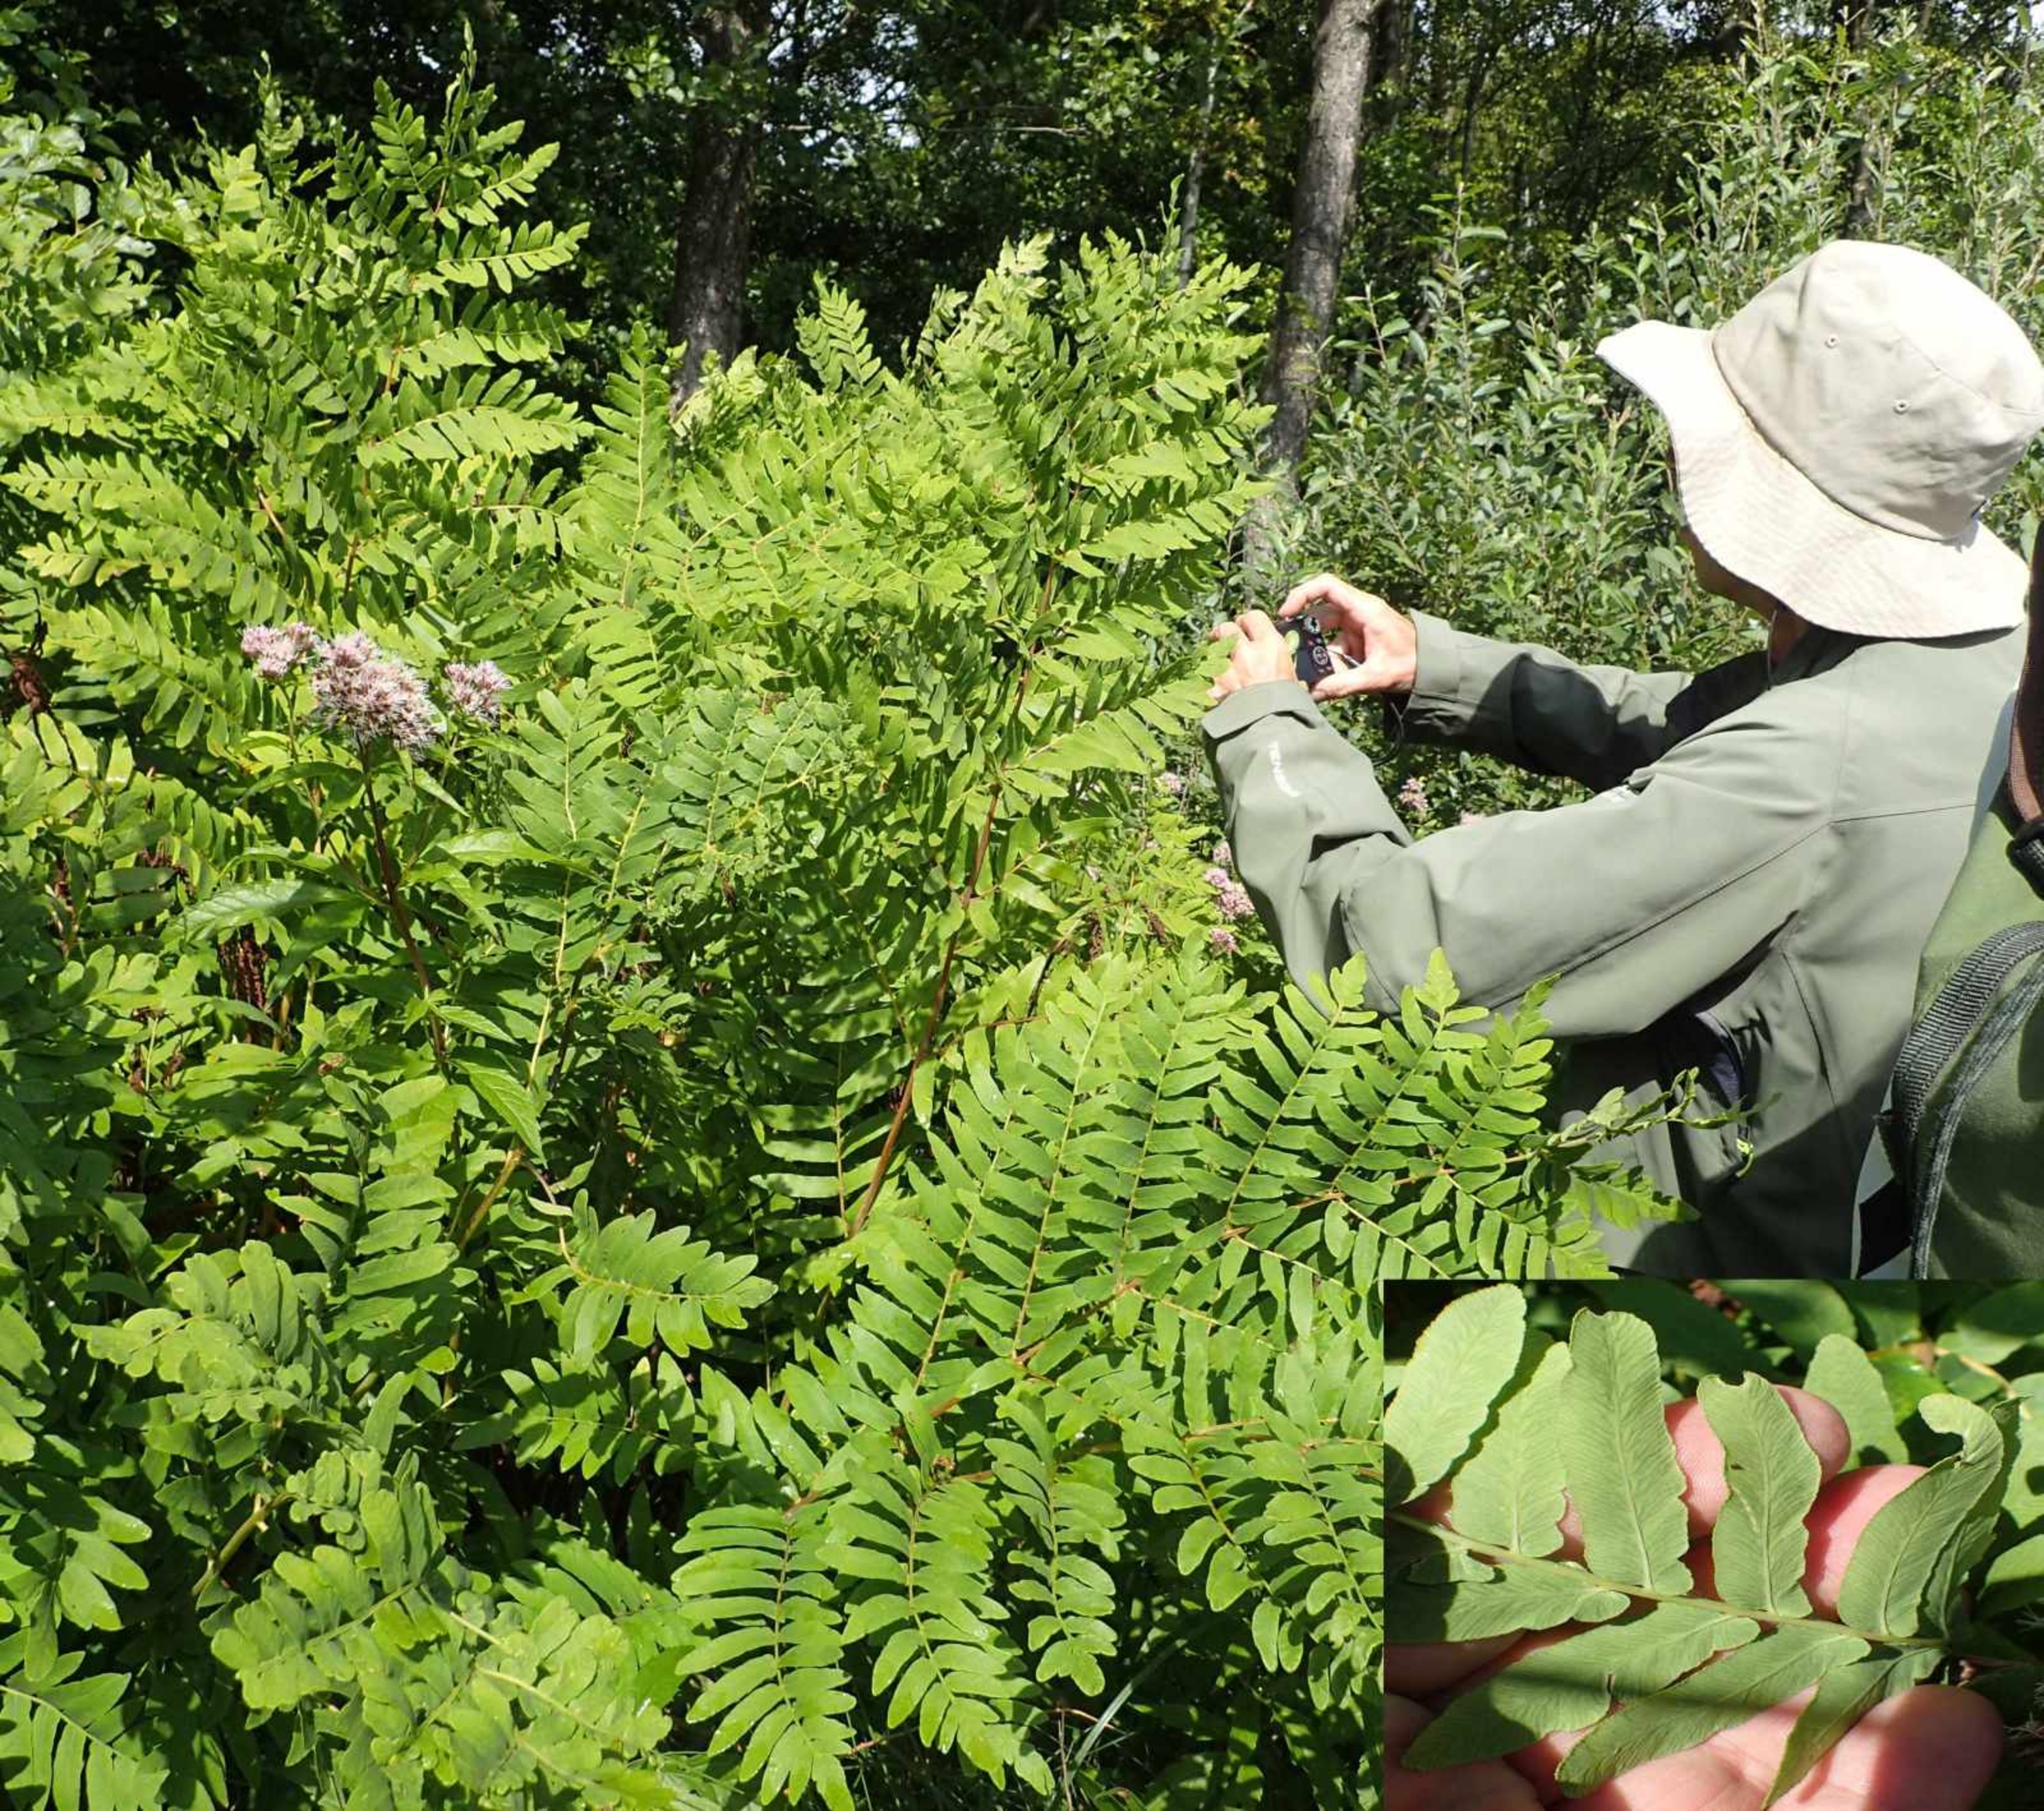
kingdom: Plantae
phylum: Tracheophyta
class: Polypodiopsida
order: Osmundales
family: Osmundaceae
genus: Osmunda
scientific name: Osmunda regalis
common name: Kongebregne
